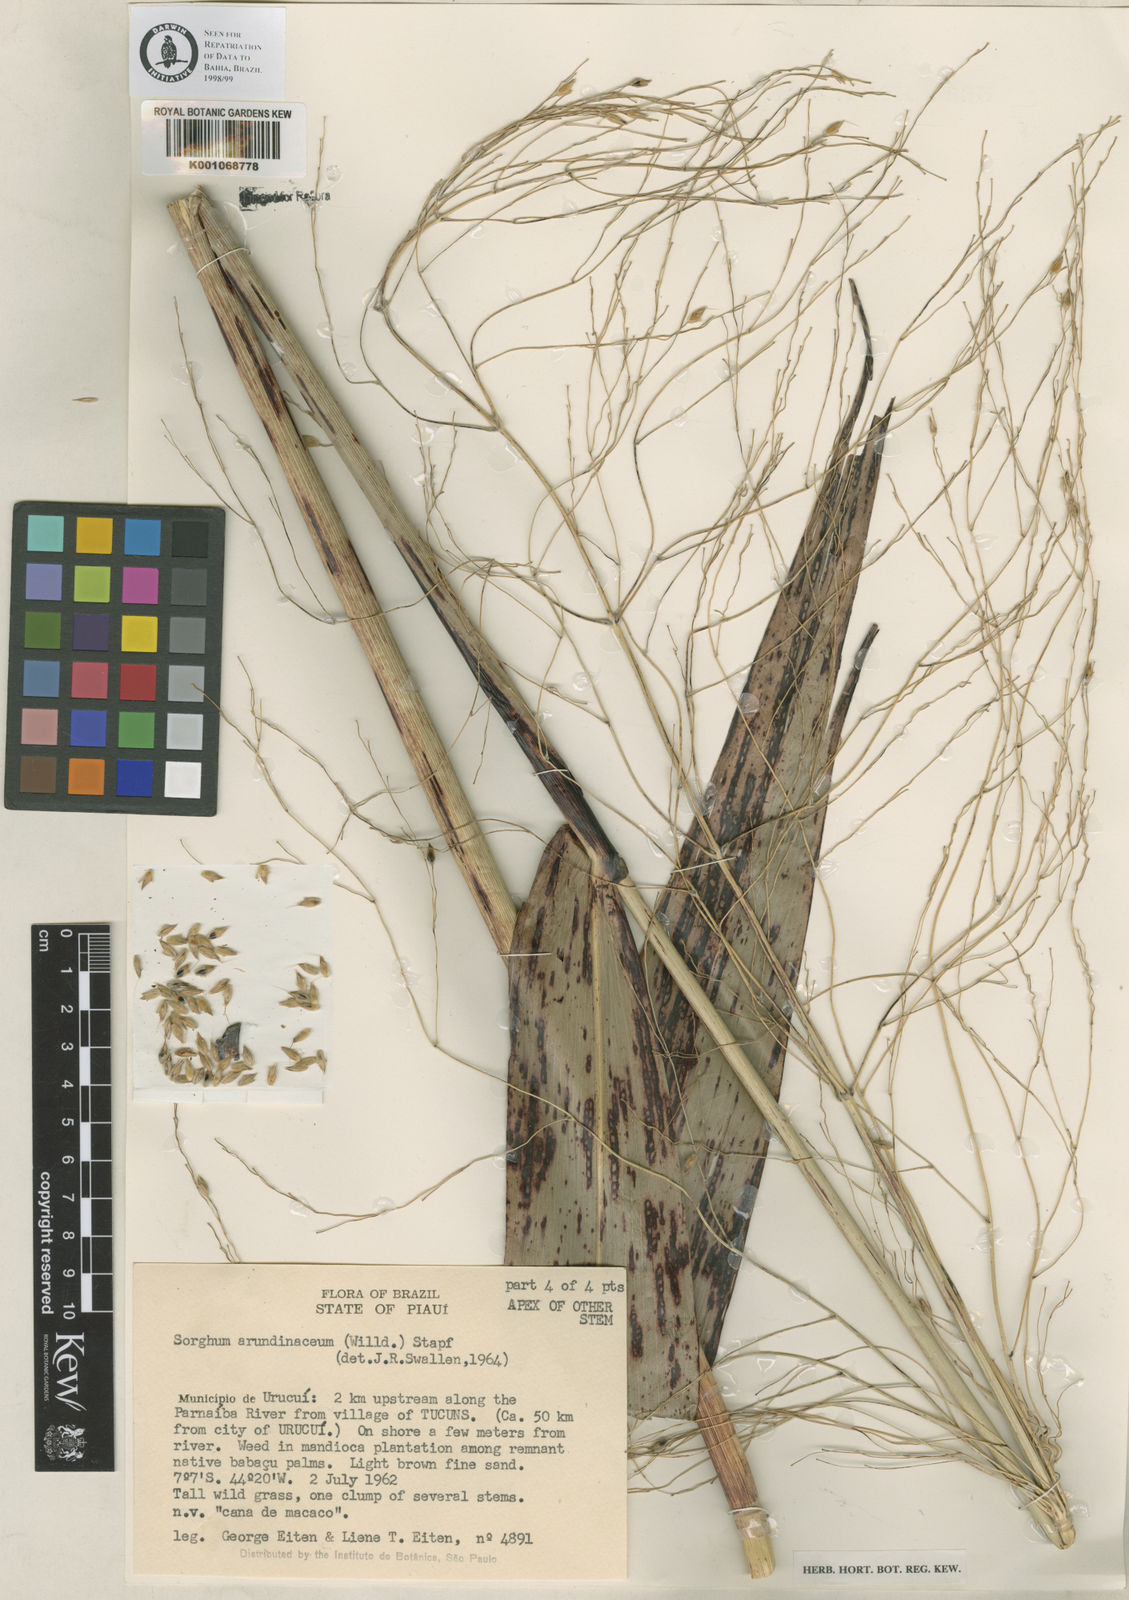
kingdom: Plantae
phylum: Tracheophyta
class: Liliopsida
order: Poales
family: Poaceae
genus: Sorghum
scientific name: Sorghum arundinaceum
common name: Sorghum
